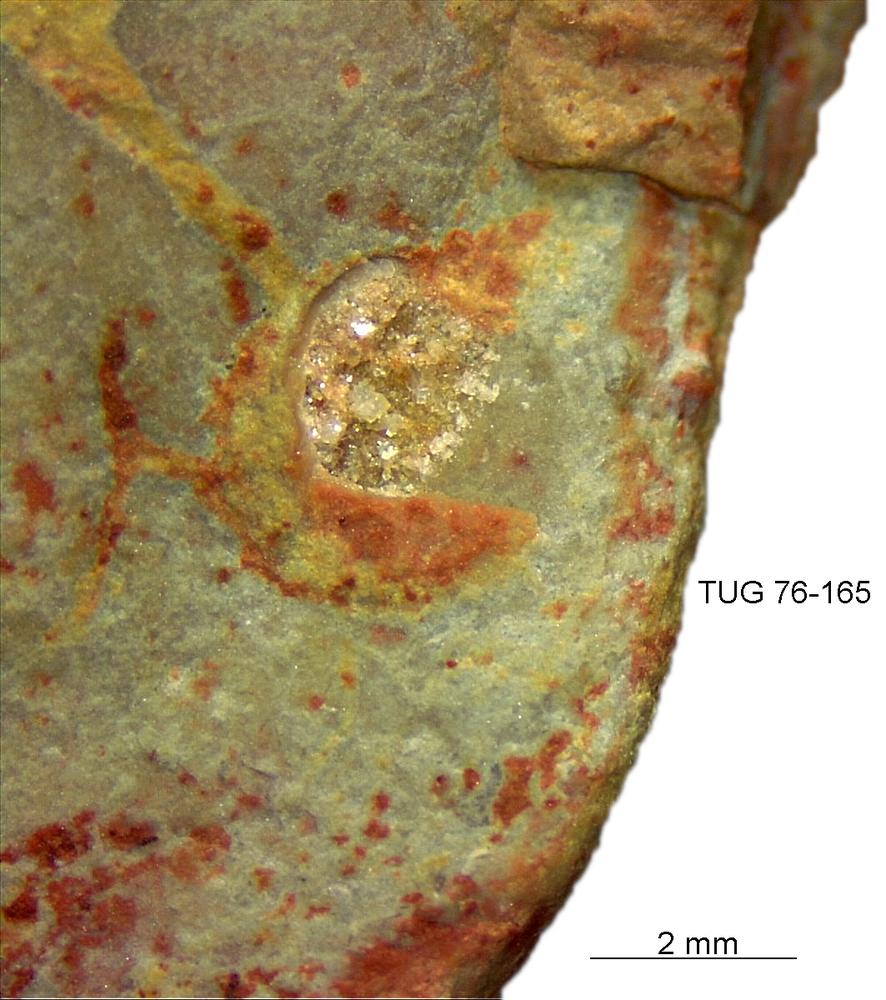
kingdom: Animalia
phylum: Brachiopoda
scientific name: Brachiopoda
